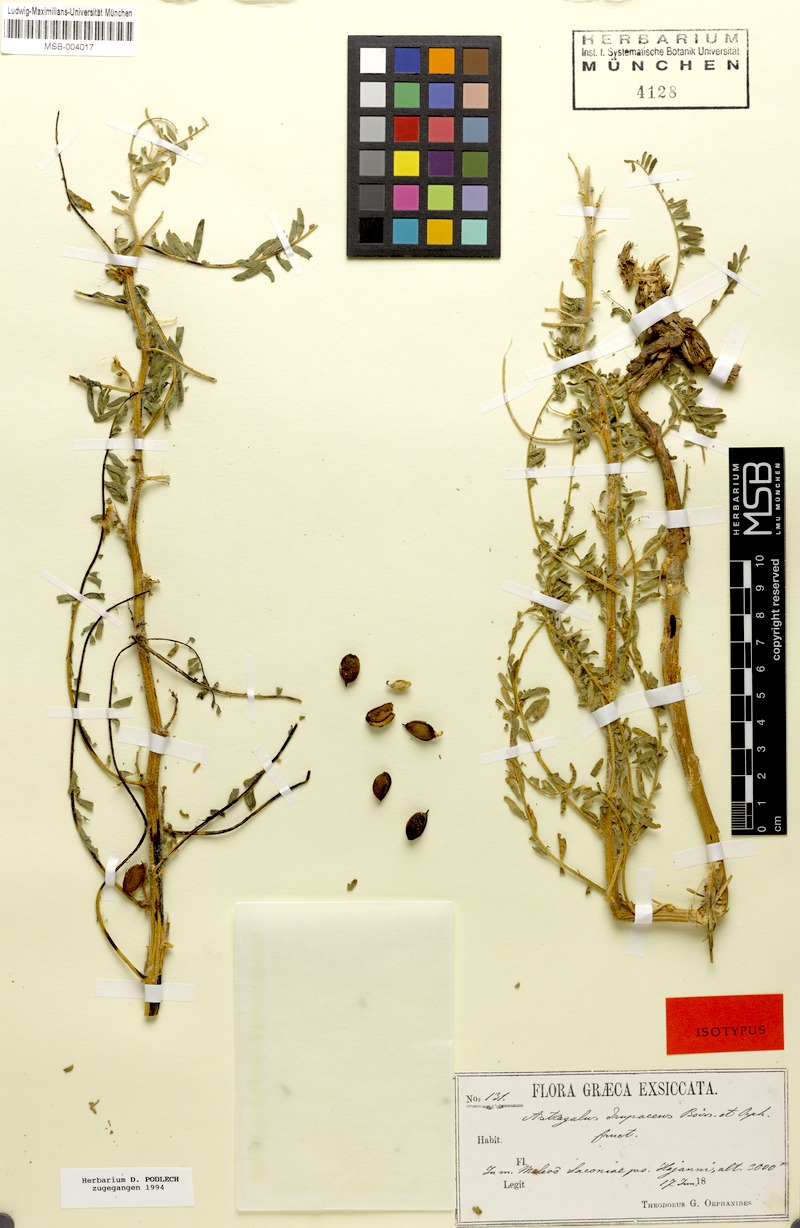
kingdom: Plantae
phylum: Tracheophyta
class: Magnoliopsida
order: Fabales
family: Fabaceae
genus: Astragalus
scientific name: Astragalus drupaceus
